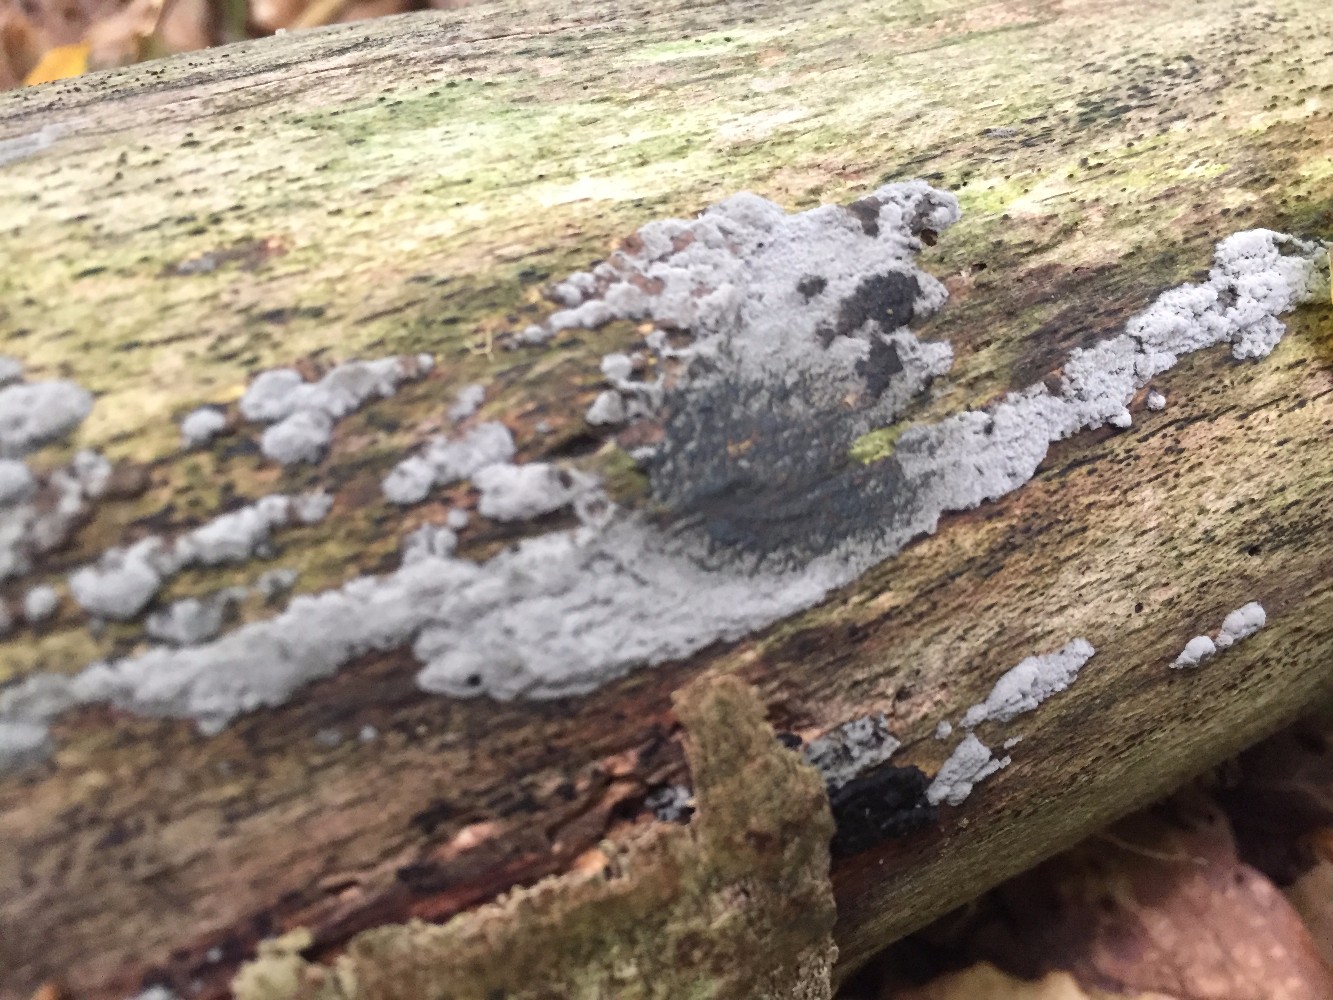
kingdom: Fungi
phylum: Ascomycota
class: Sordariomycetes
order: Xylariales
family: Hypoxylaceae
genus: Hypoxylon
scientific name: Hypoxylon
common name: kulbær
